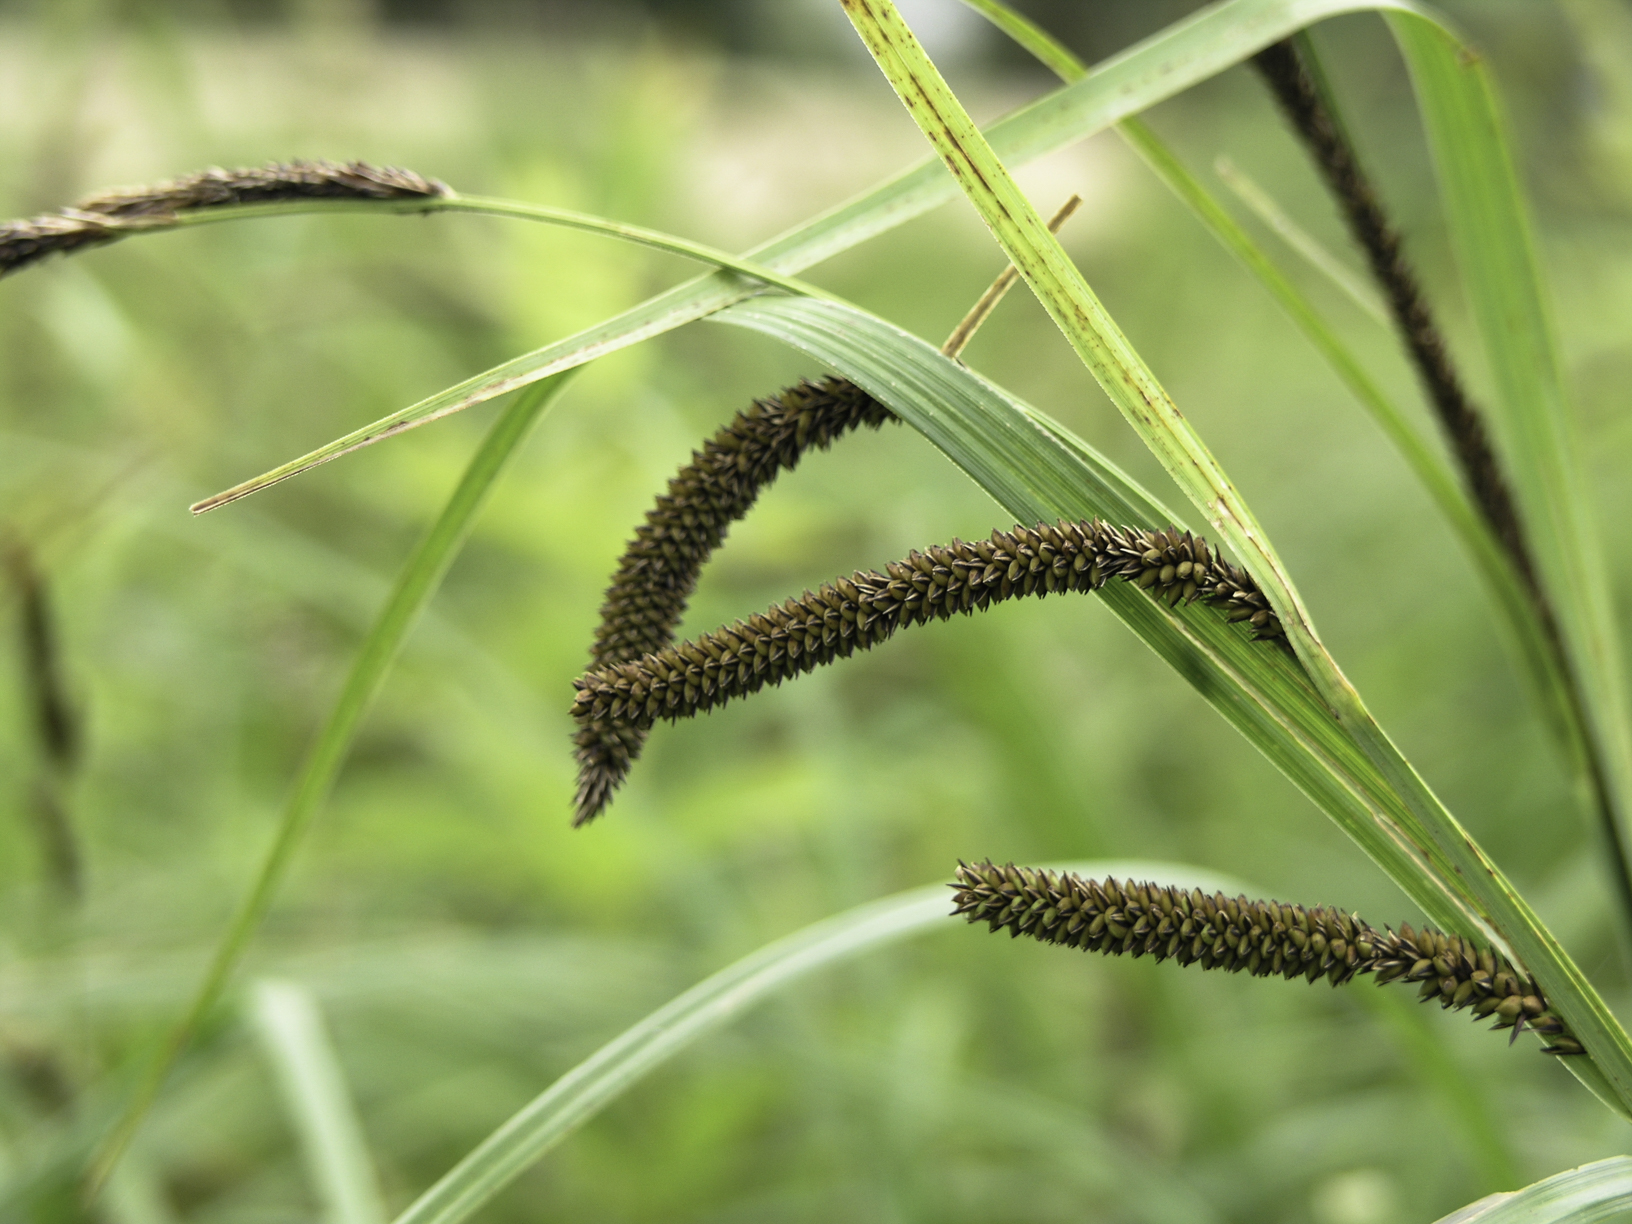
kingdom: Plantae
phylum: Tracheophyta
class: Liliopsida
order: Poales
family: Cyperaceae
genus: Carex
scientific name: Carex acutiformis
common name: Lesser pond-sedge
